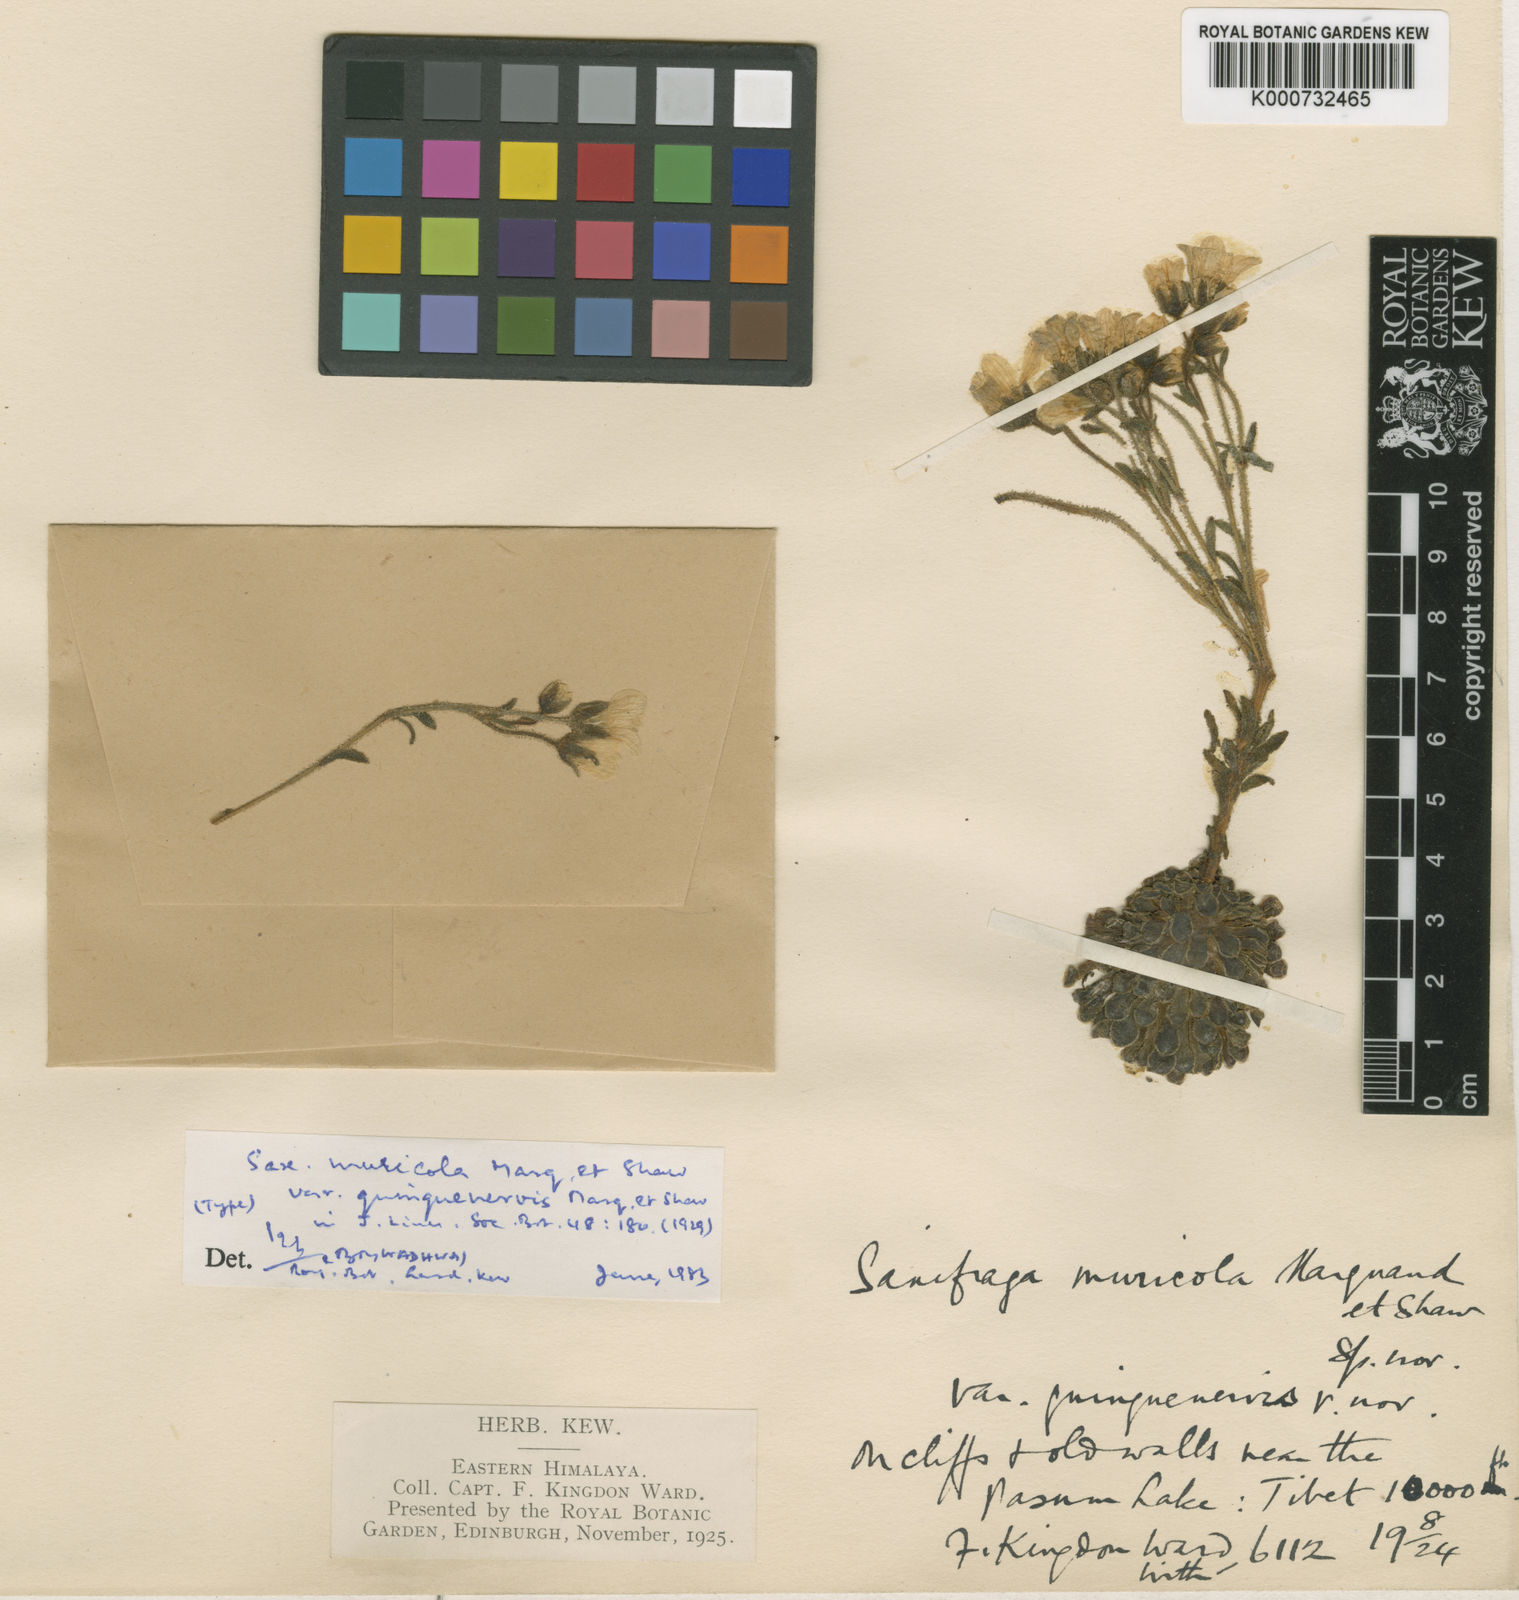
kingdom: Plantae
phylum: Tracheophyta
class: Magnoliopsida
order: Saxifragales
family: Saxifragaceae
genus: Saxifraga
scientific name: Saxifraga umbellulata
